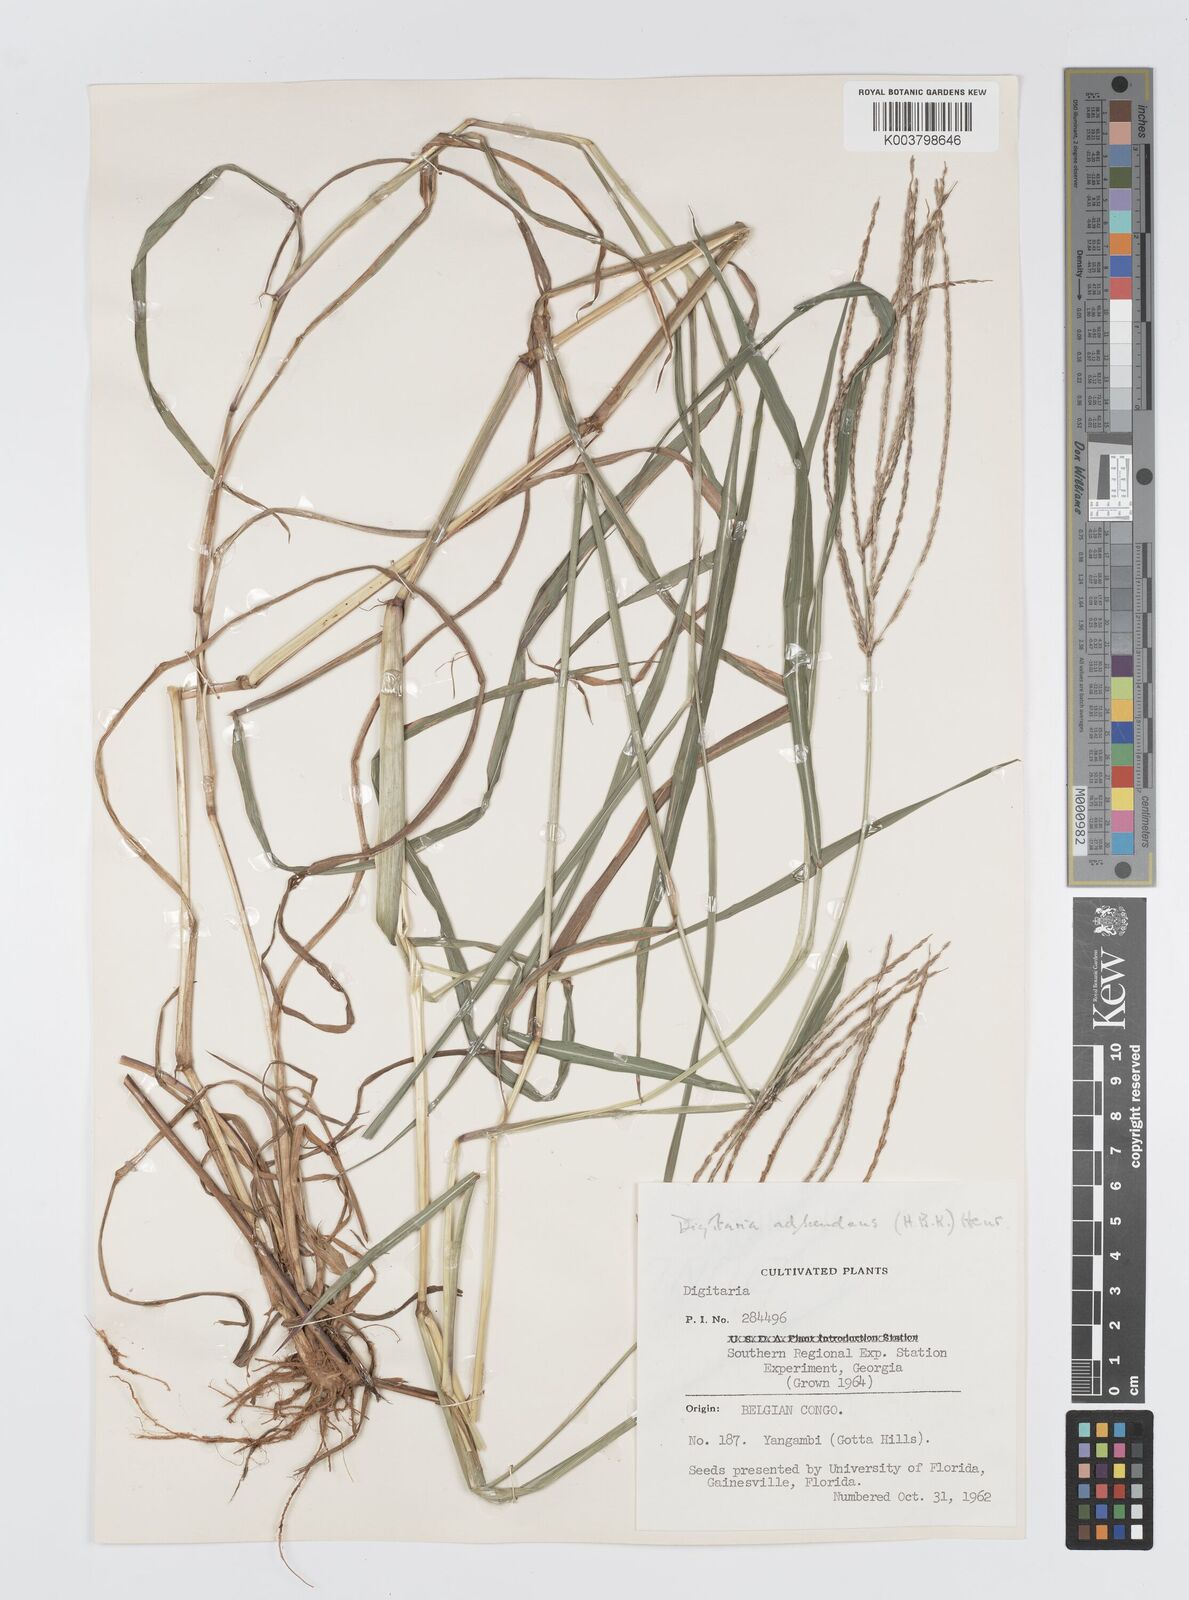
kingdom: Plantae
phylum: Tracheophyta
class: Liliopsida
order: Poales
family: Poaceae
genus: Digitaria
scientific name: Digitaria milanjiana
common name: Madagascar crabgrass
